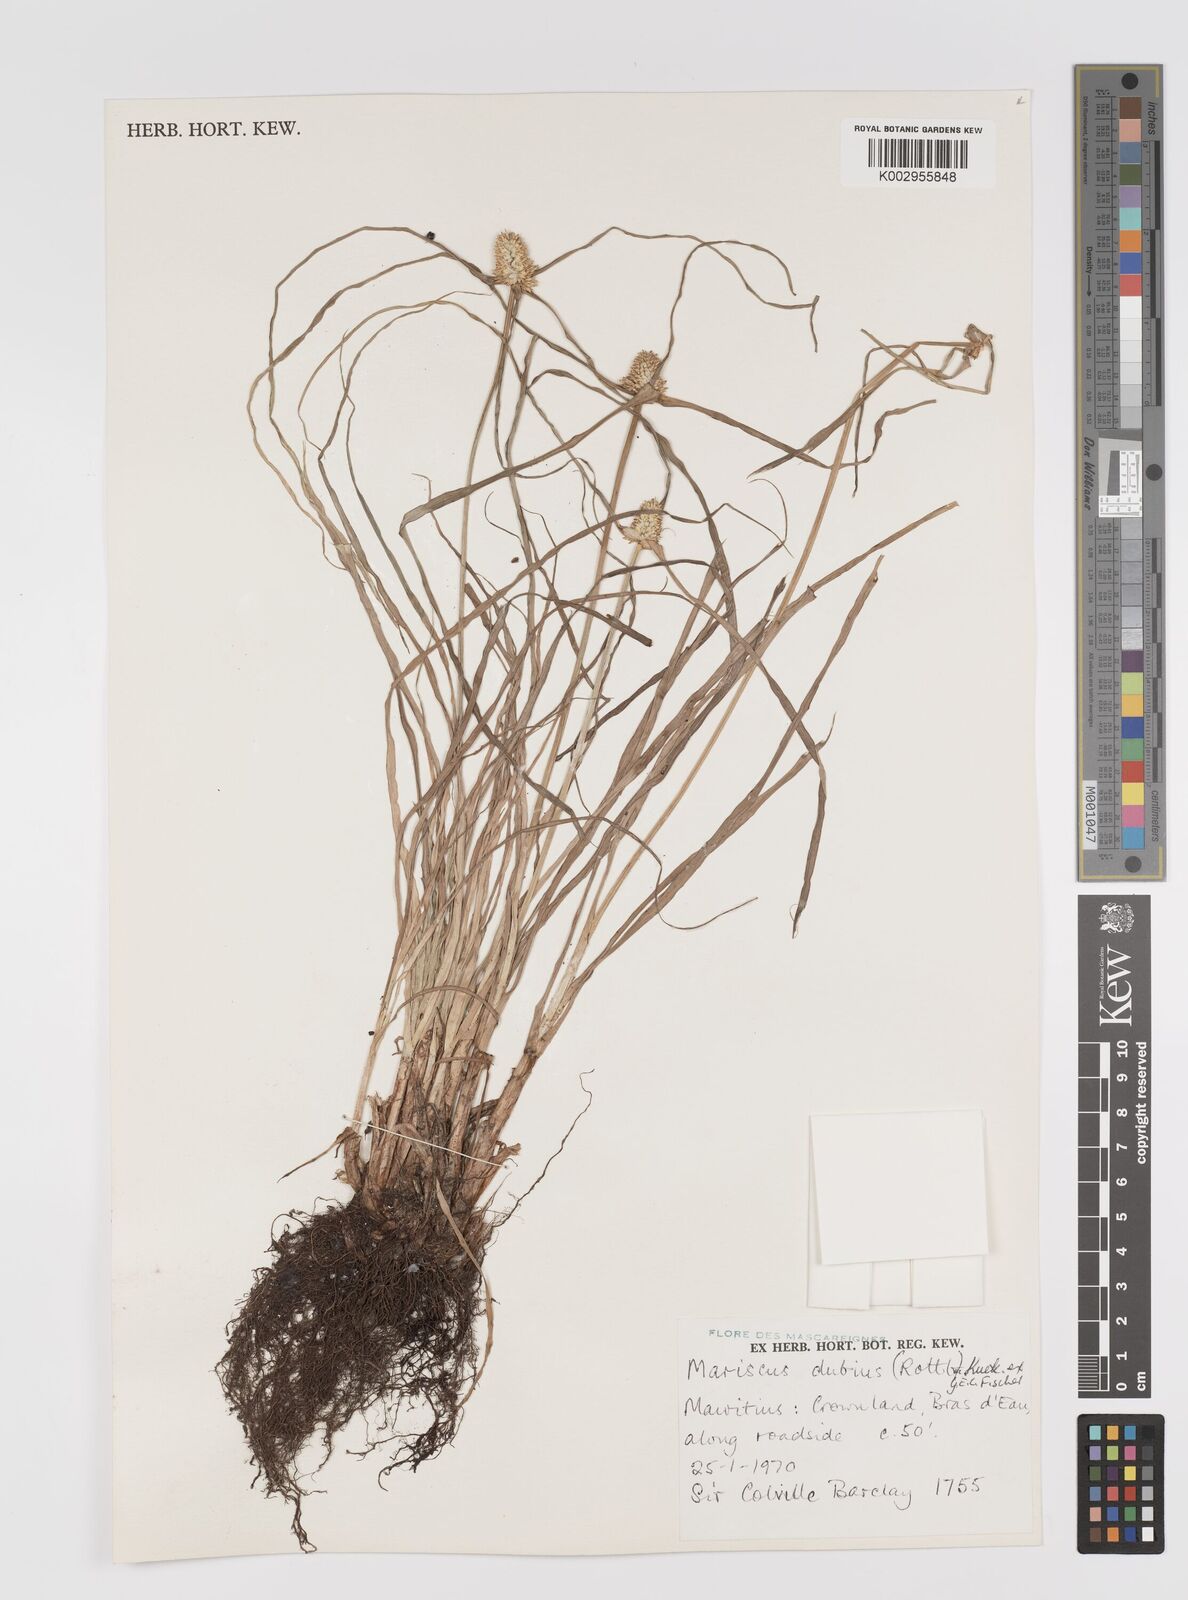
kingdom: Plantae
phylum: Tracheophyta
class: Liliopsida
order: Poales
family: Cyperaceae
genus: Cyperus
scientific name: Cyperus dubius
